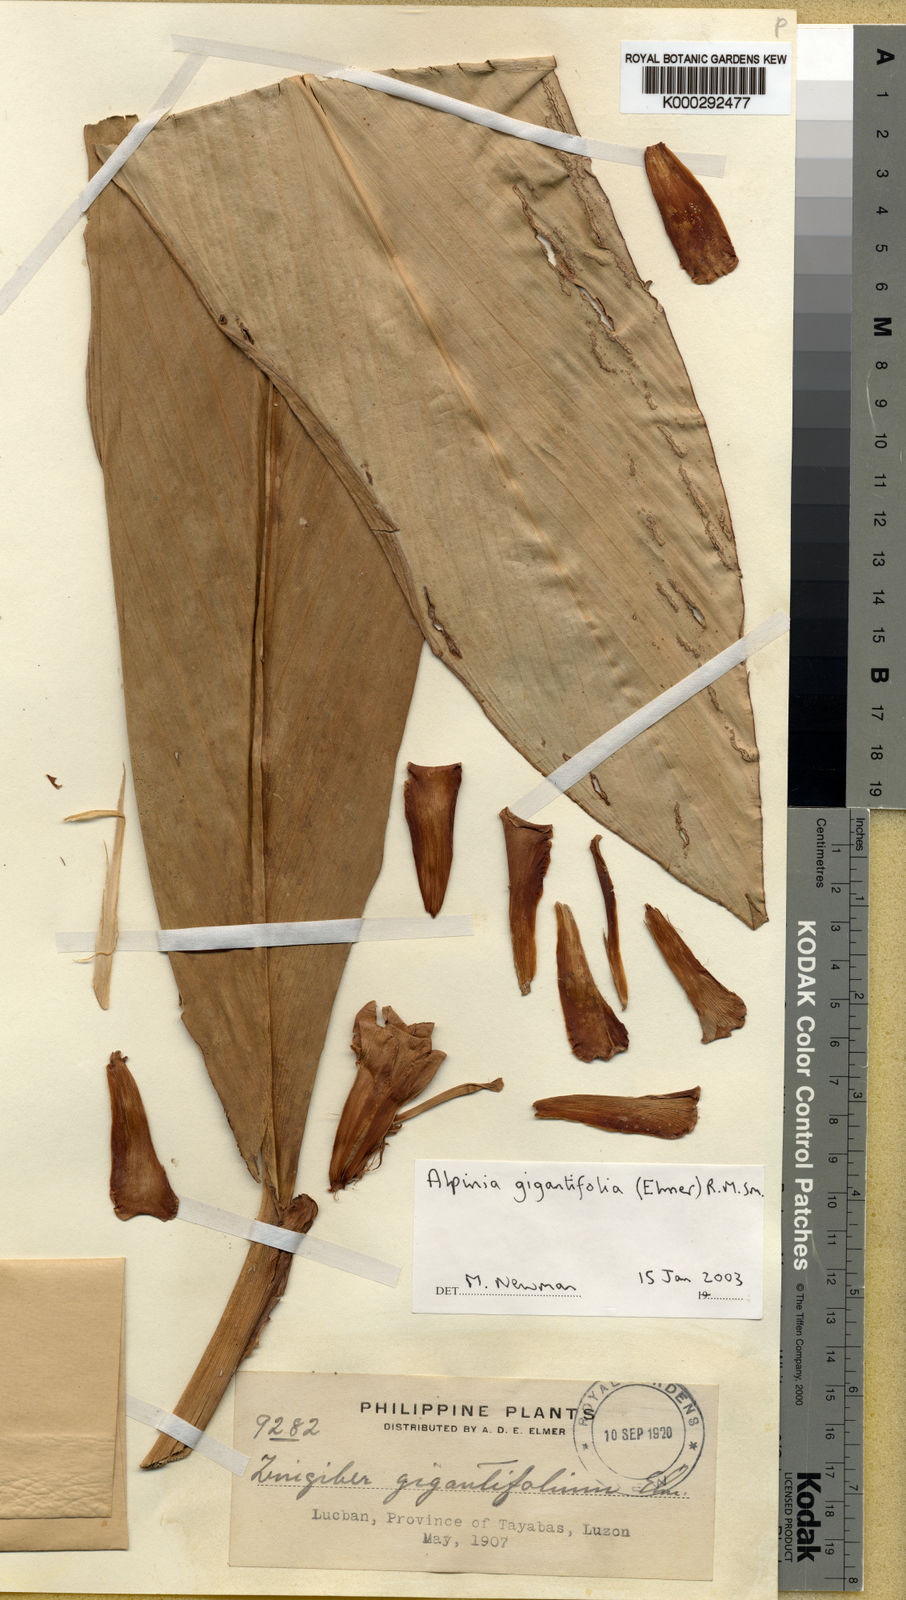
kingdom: Plantae
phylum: Tracheophyta
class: Liliopsida
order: Zingiberales
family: Zingiberaceae
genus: Adelmeria
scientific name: Adelmeria gigantifolia
